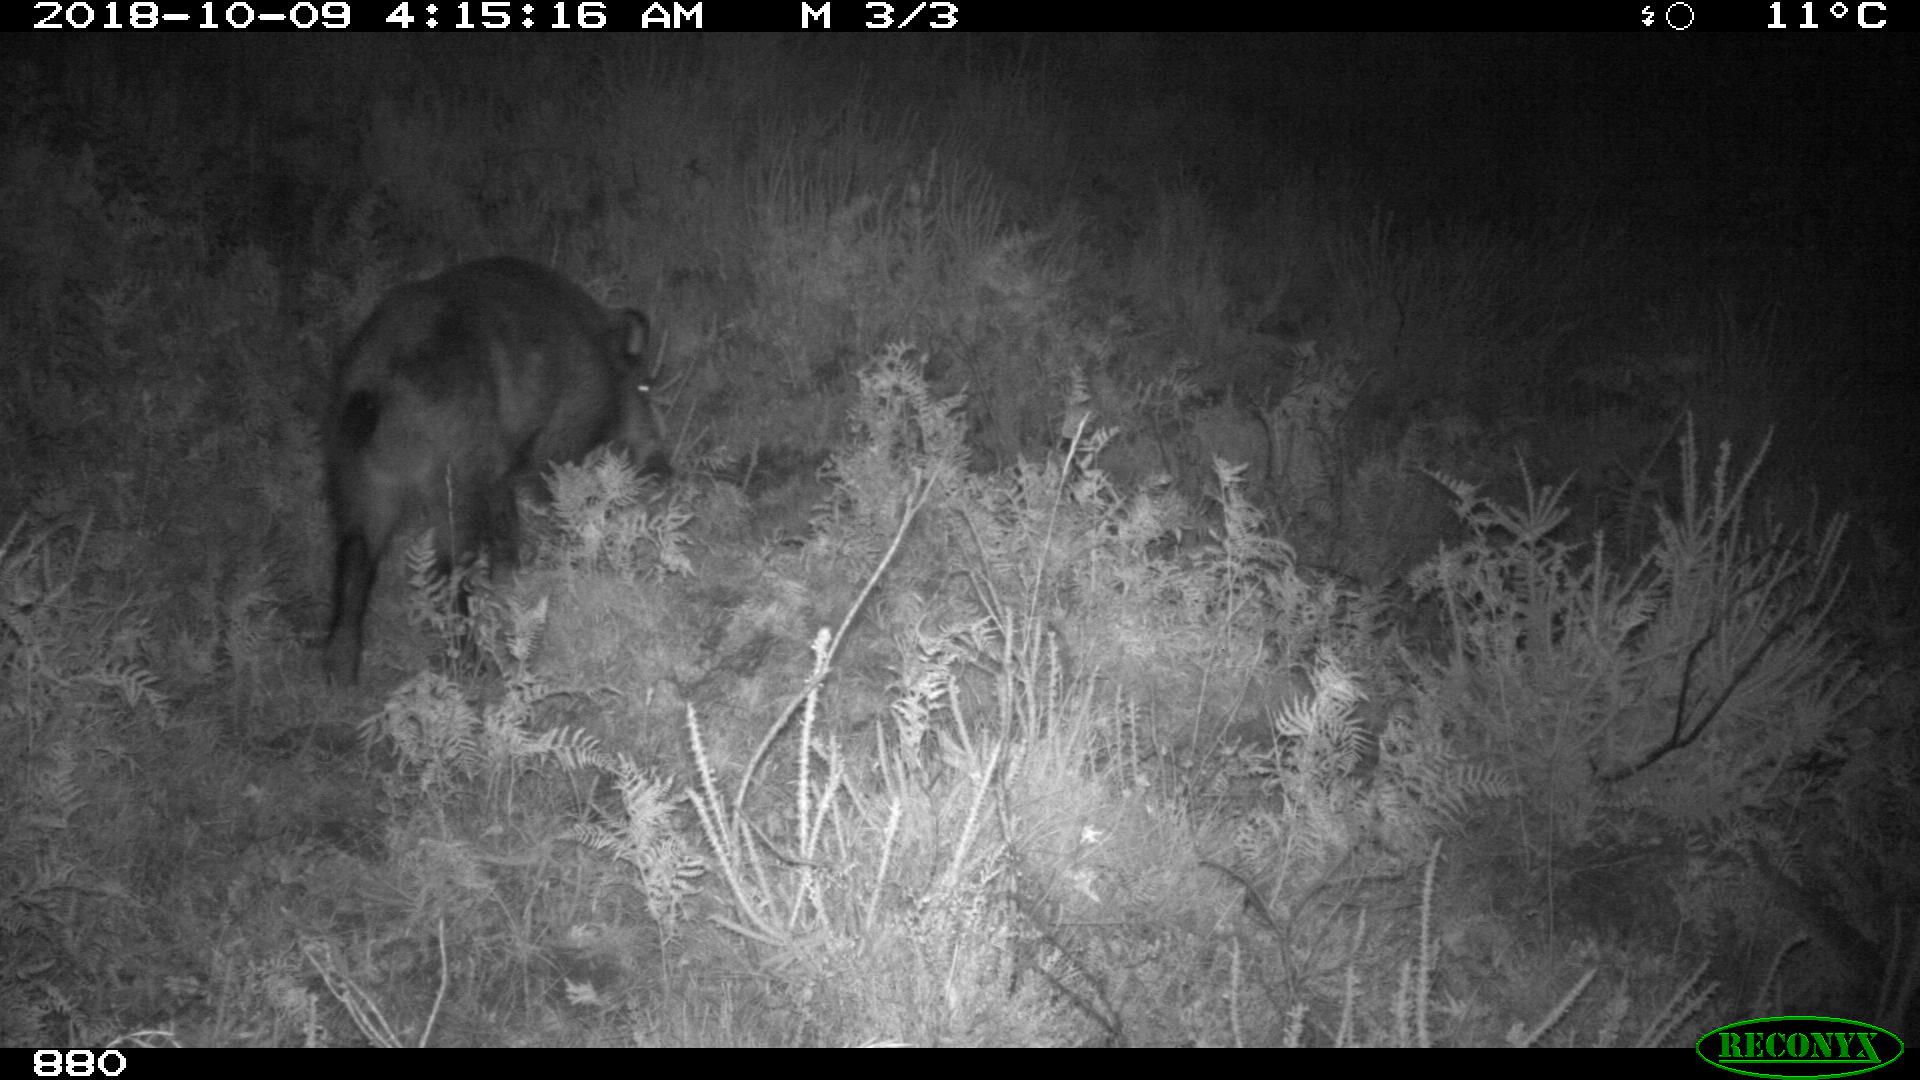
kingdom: Animalia
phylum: Chordata
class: Mammalia
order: Artiodactyla
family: Suidae
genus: Sus
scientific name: Sus scrofa
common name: Wild boar
